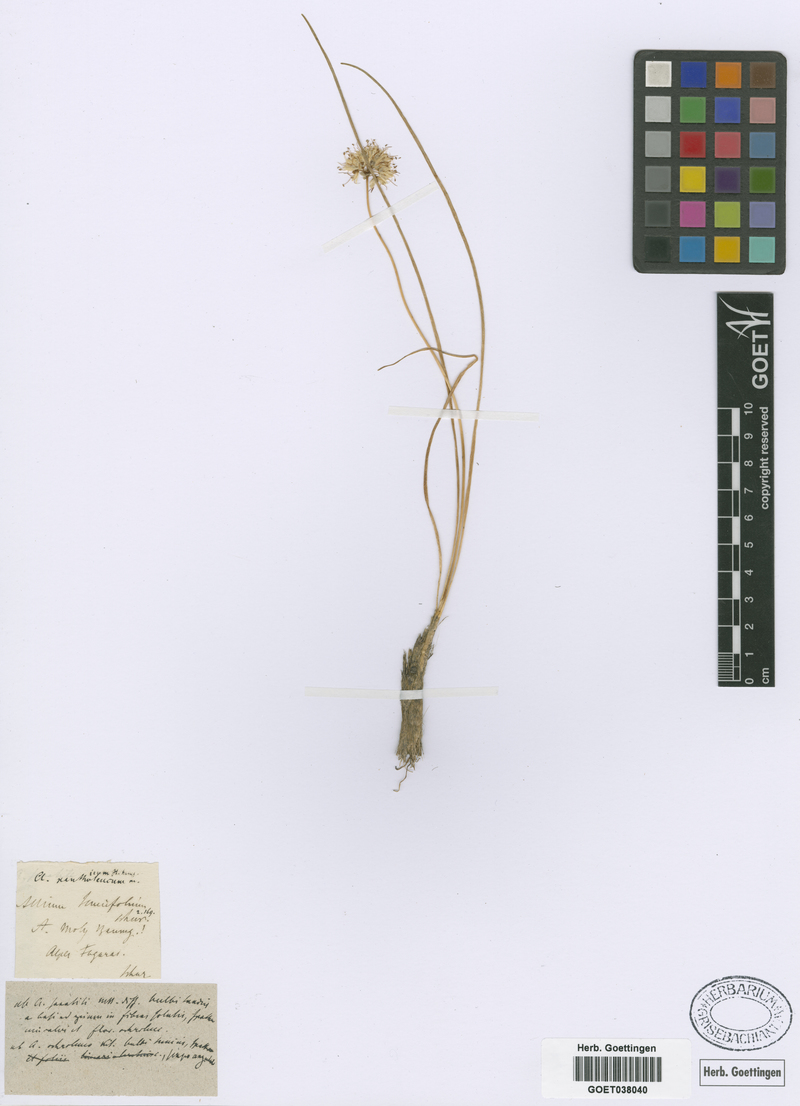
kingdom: Plantae
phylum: Tracheophyta
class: Liliopsida
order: Asparagales
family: Amaryllidaceae
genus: Allium
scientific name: Allium ericetorum
